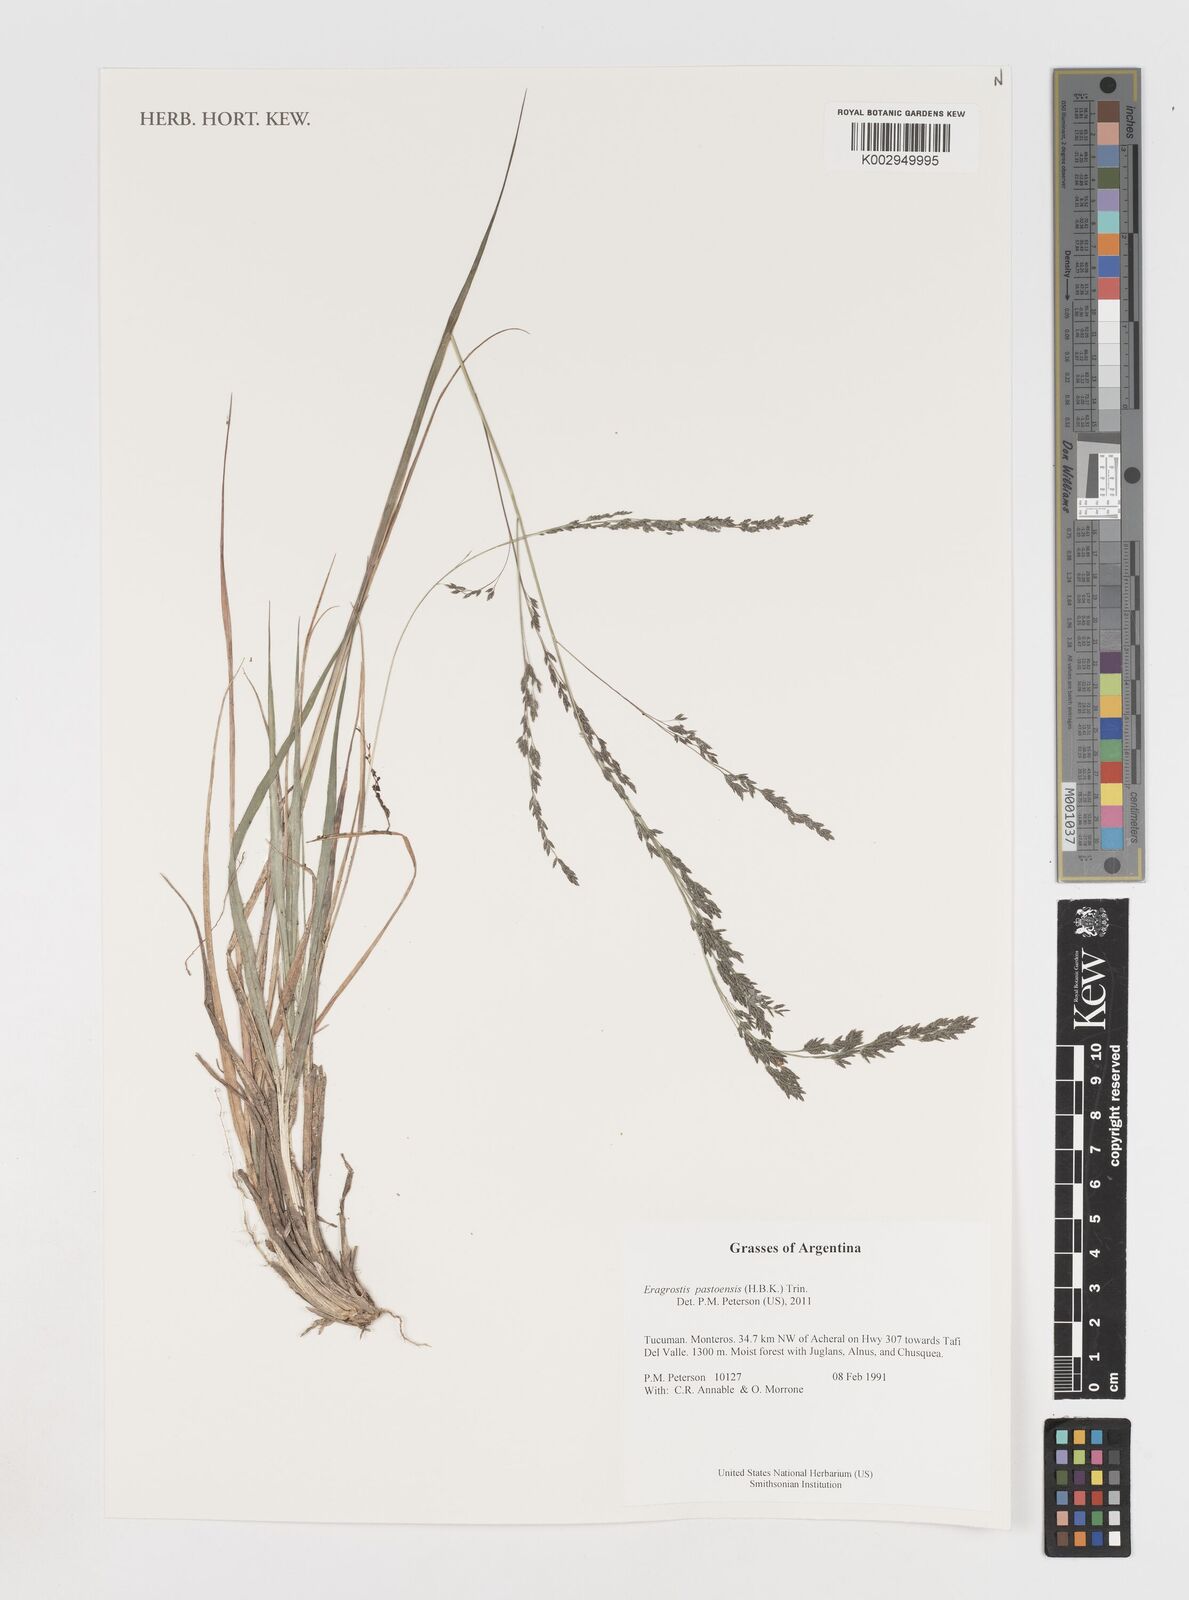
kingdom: Plantae
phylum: Tracheophyta
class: Liliopsida
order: Poales
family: Poaceae
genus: Eragrostis
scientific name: Eragrostis pastoensis
